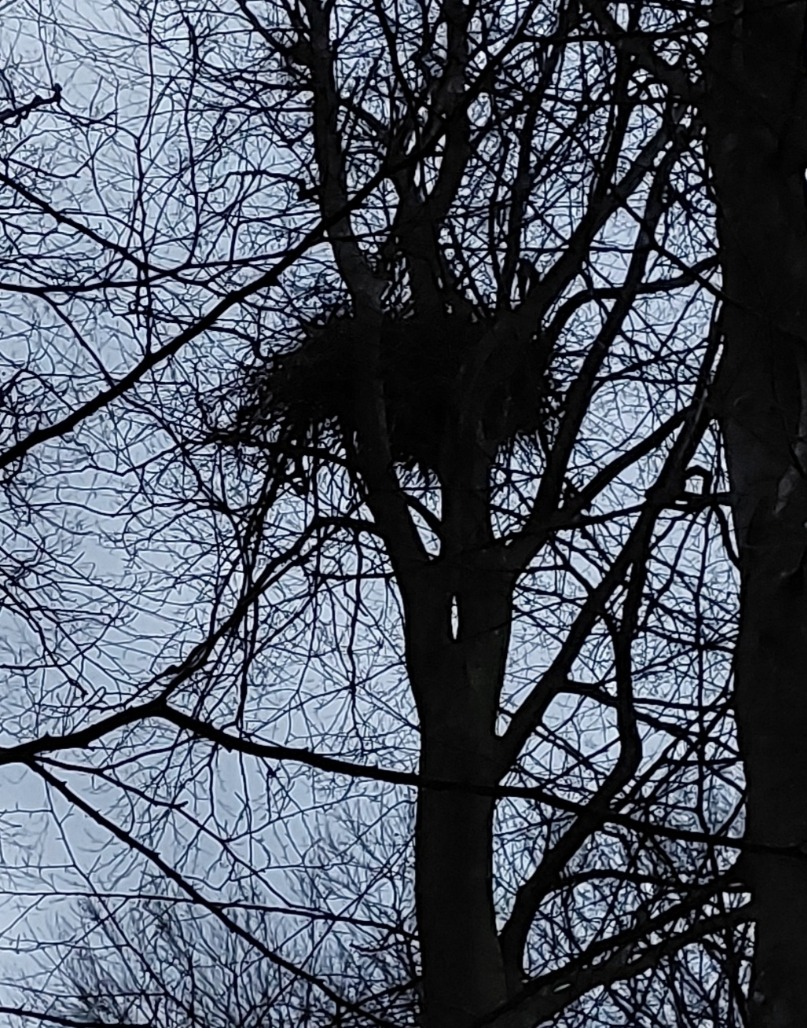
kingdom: Animalia
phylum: Chordata
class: Aves
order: Accipitriformes
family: Accipitridae
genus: Haliaeetus
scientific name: Haliaeetus albicilla
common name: Havørn
